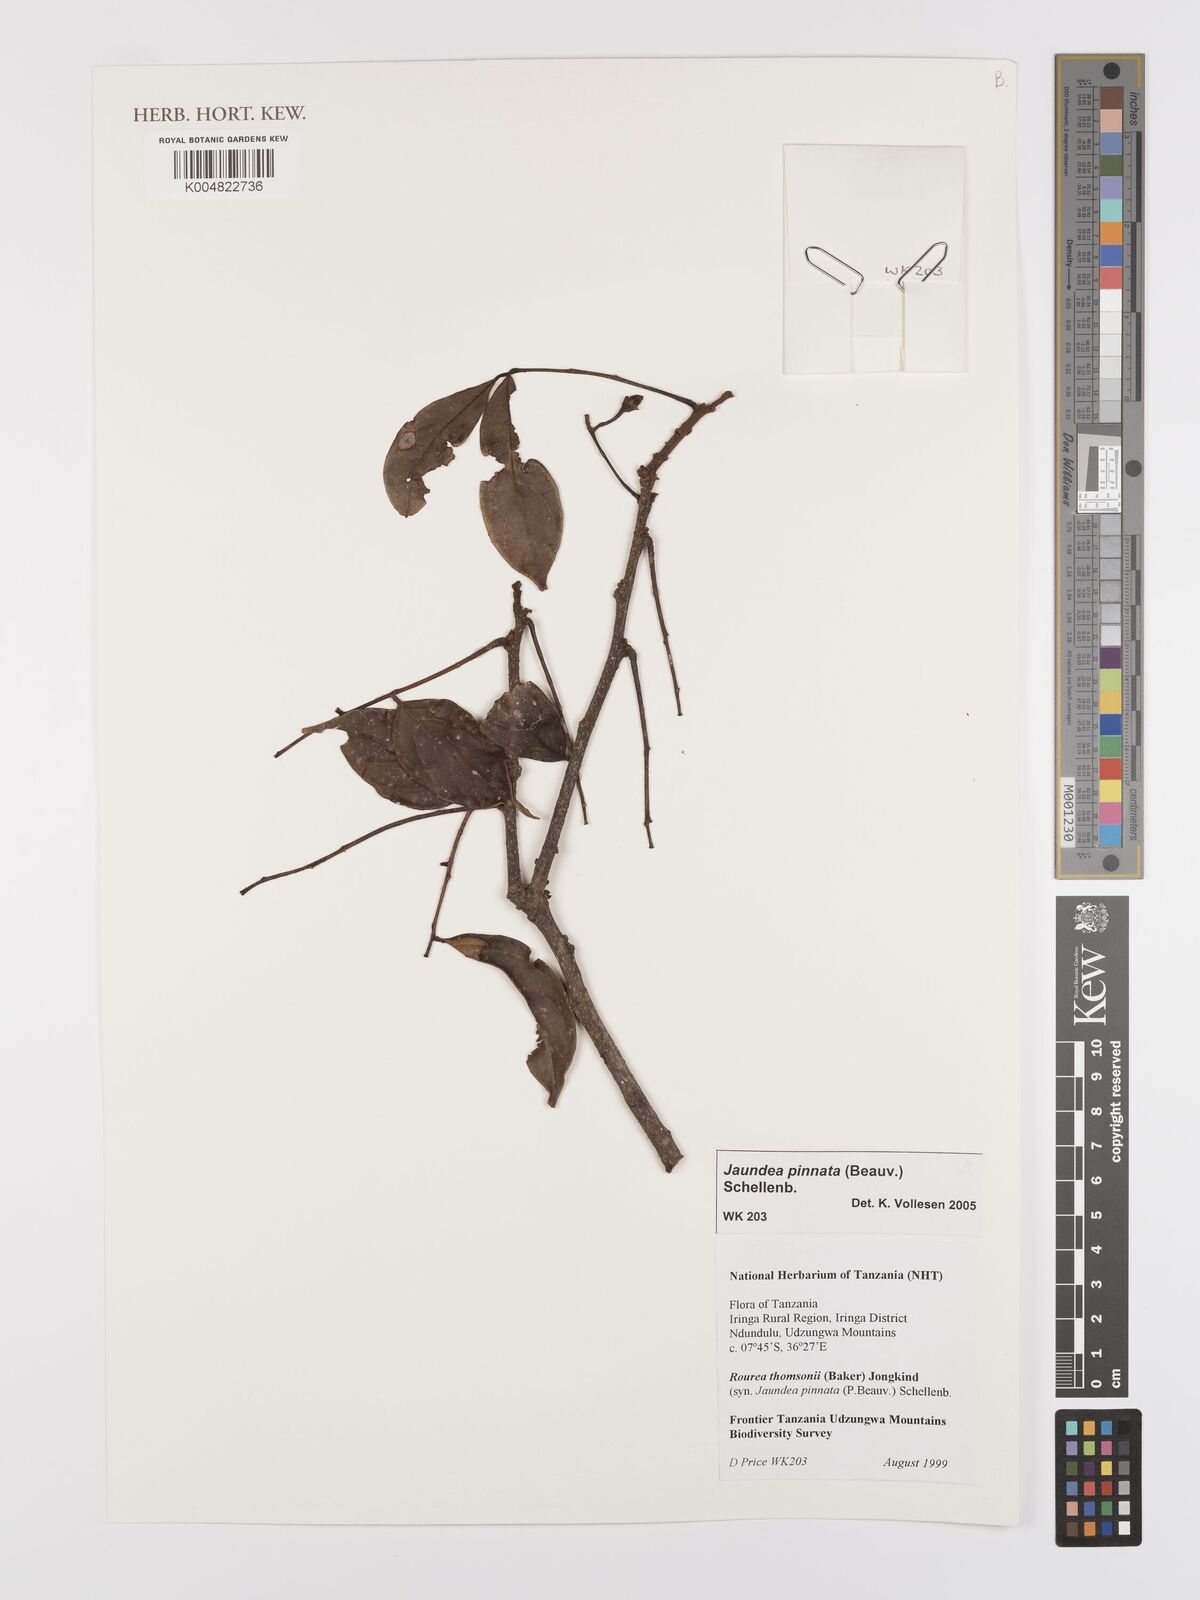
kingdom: Plantae
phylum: Tracheophyta
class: Magnoliopsida
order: Oxalidales
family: Connaraceae
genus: Rourea
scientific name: Rourea pinnata
